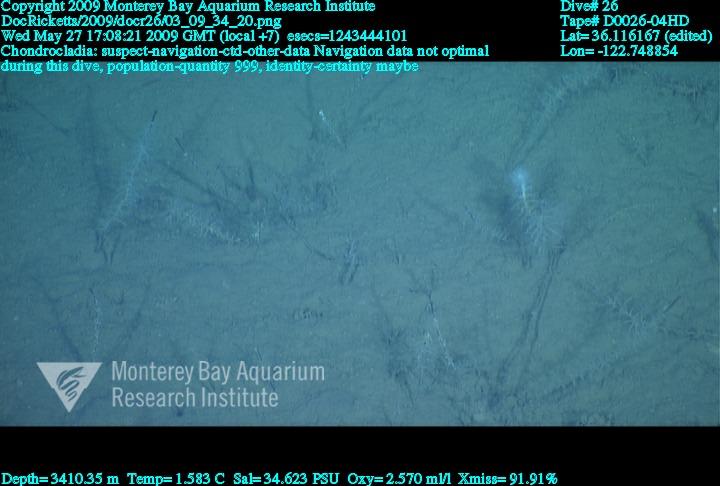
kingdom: Animalia
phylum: Porifera
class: Demospongiae
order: Poecilosclerida
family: Cladorhizidae
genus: Chondrocladia
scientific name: Chondrocladia
